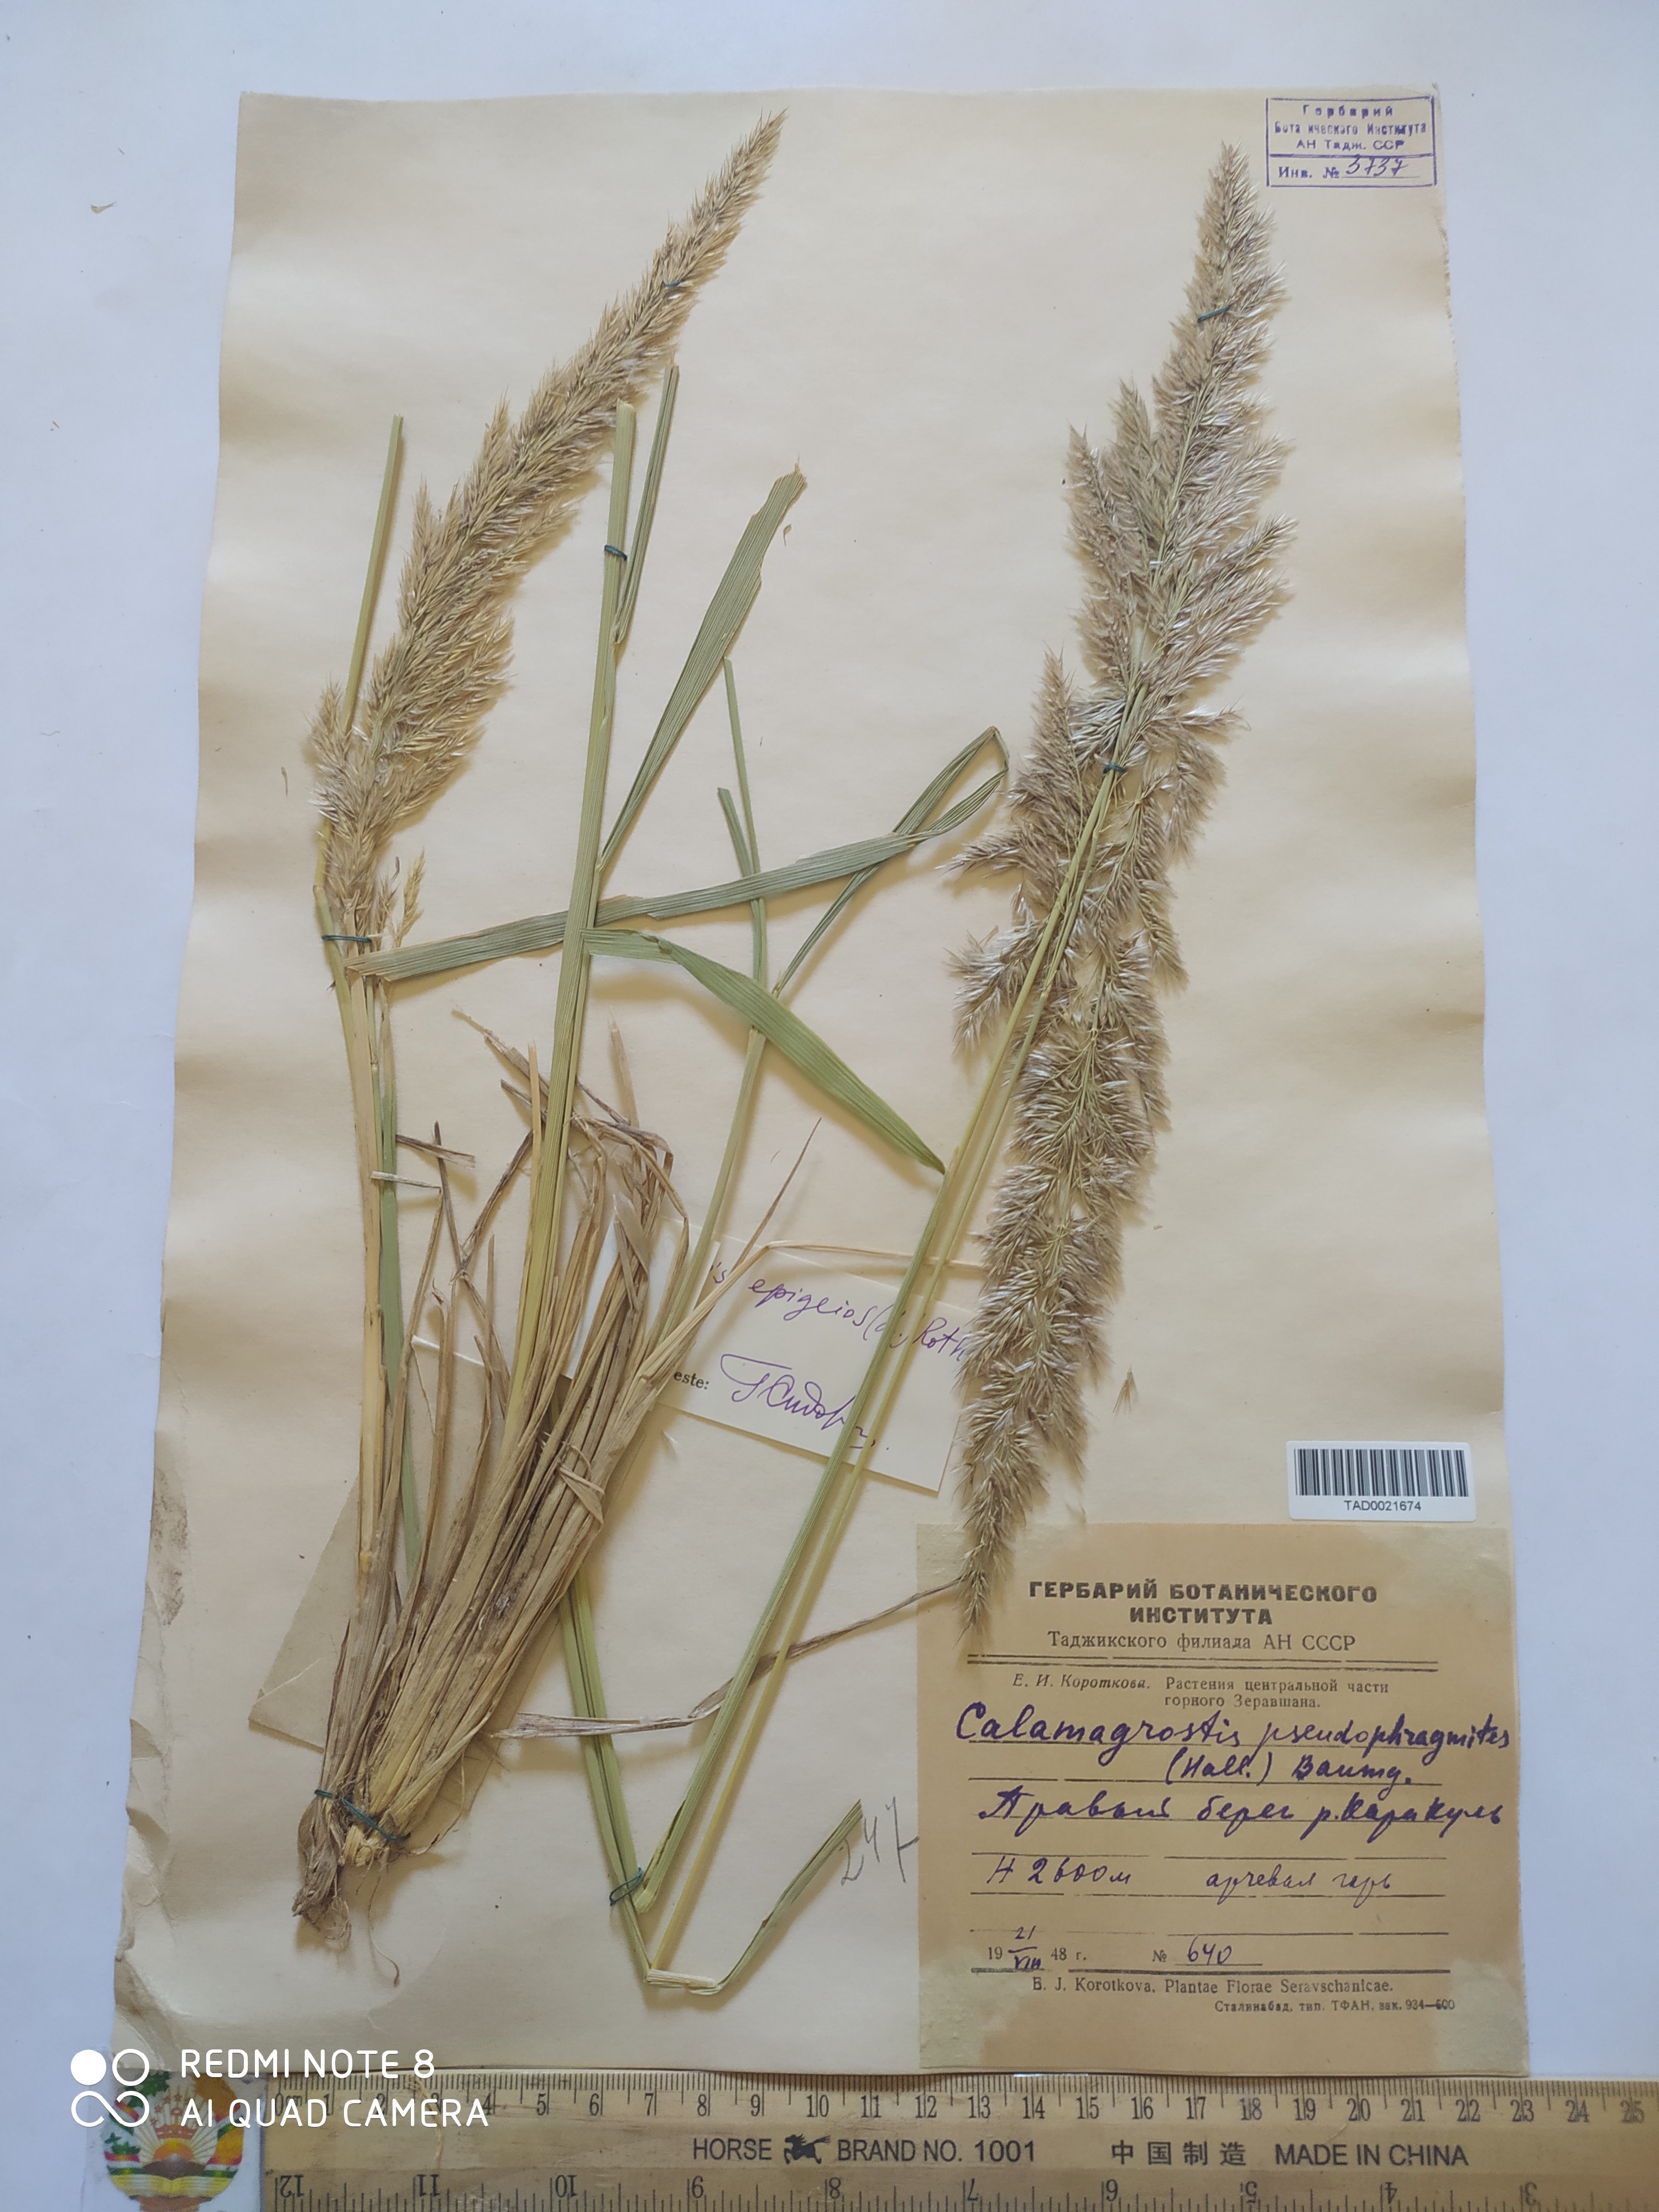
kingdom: Plantae
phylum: Tracheophyta
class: Liliopsida
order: Poales
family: Poaceae
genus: Calamagrostis
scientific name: Calamagrostis pseudophragmites
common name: Coastal small-reed
